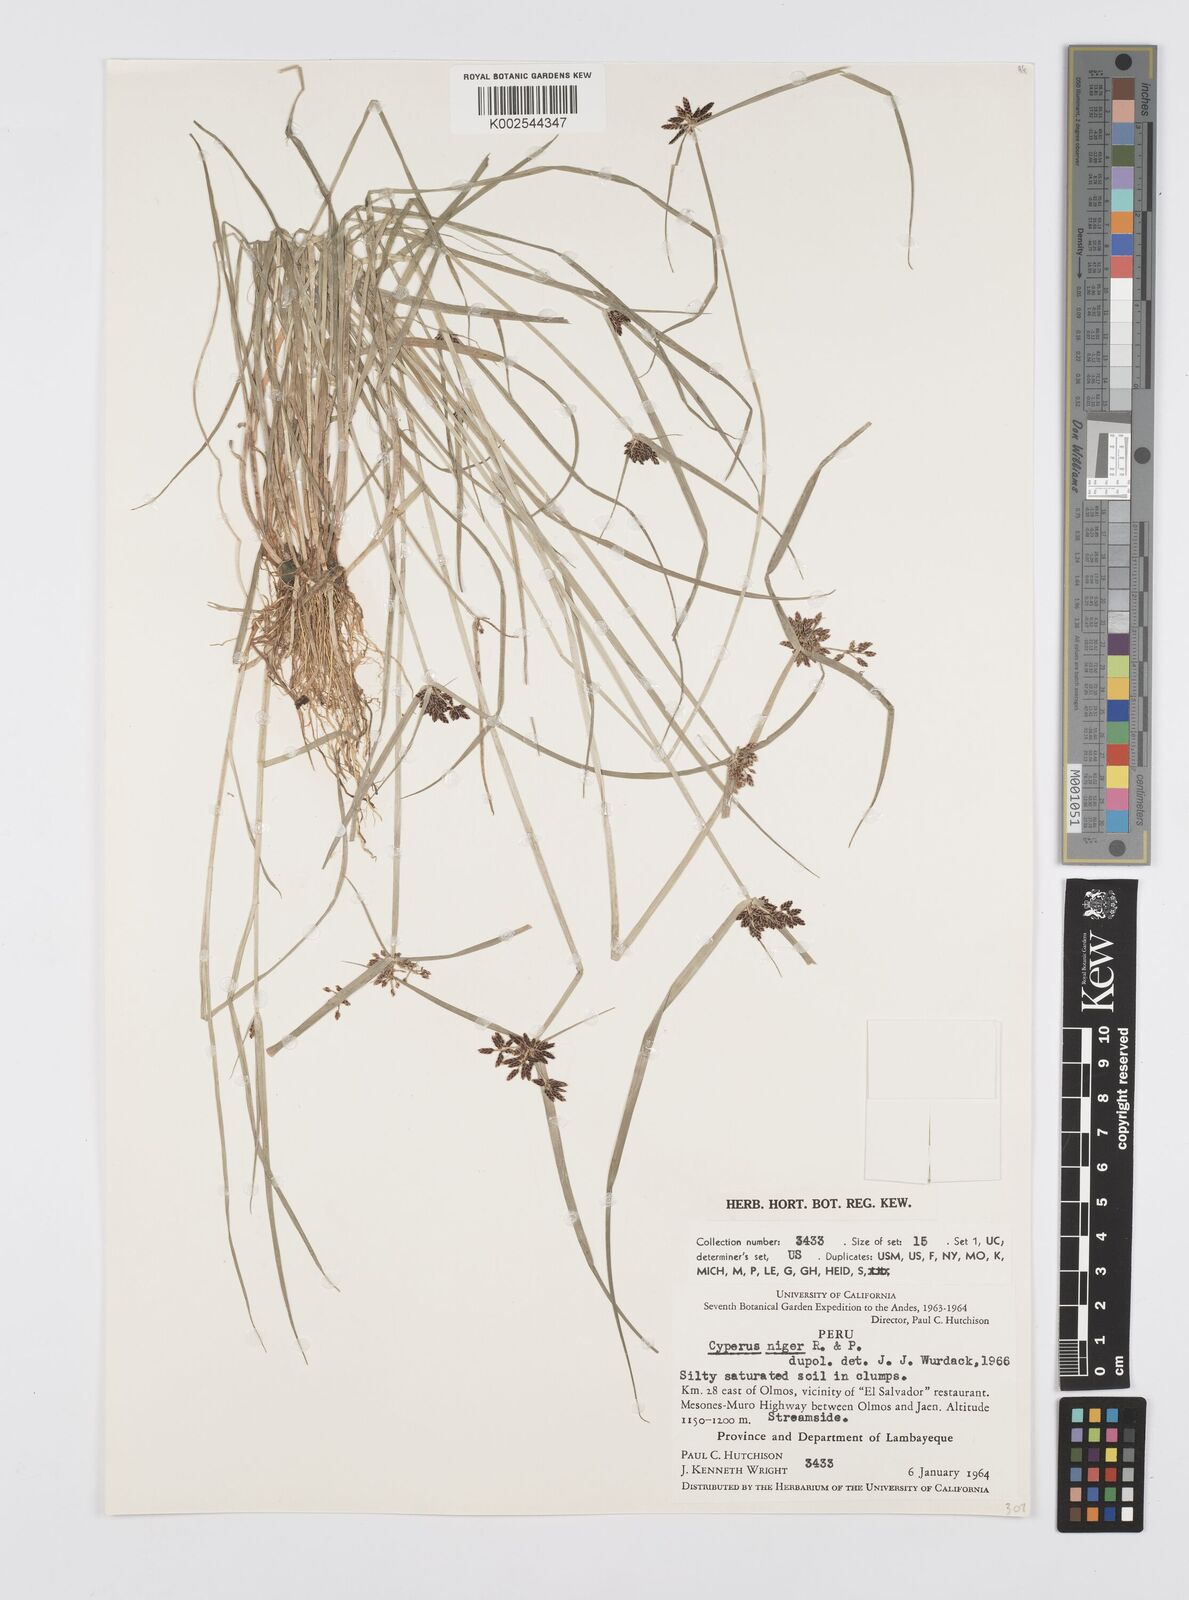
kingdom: Plantae
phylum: Tracheophyta
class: Liliopsida
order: Poales
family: Cyperaceae
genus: Cyperus
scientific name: Cyperus melanostachyus
